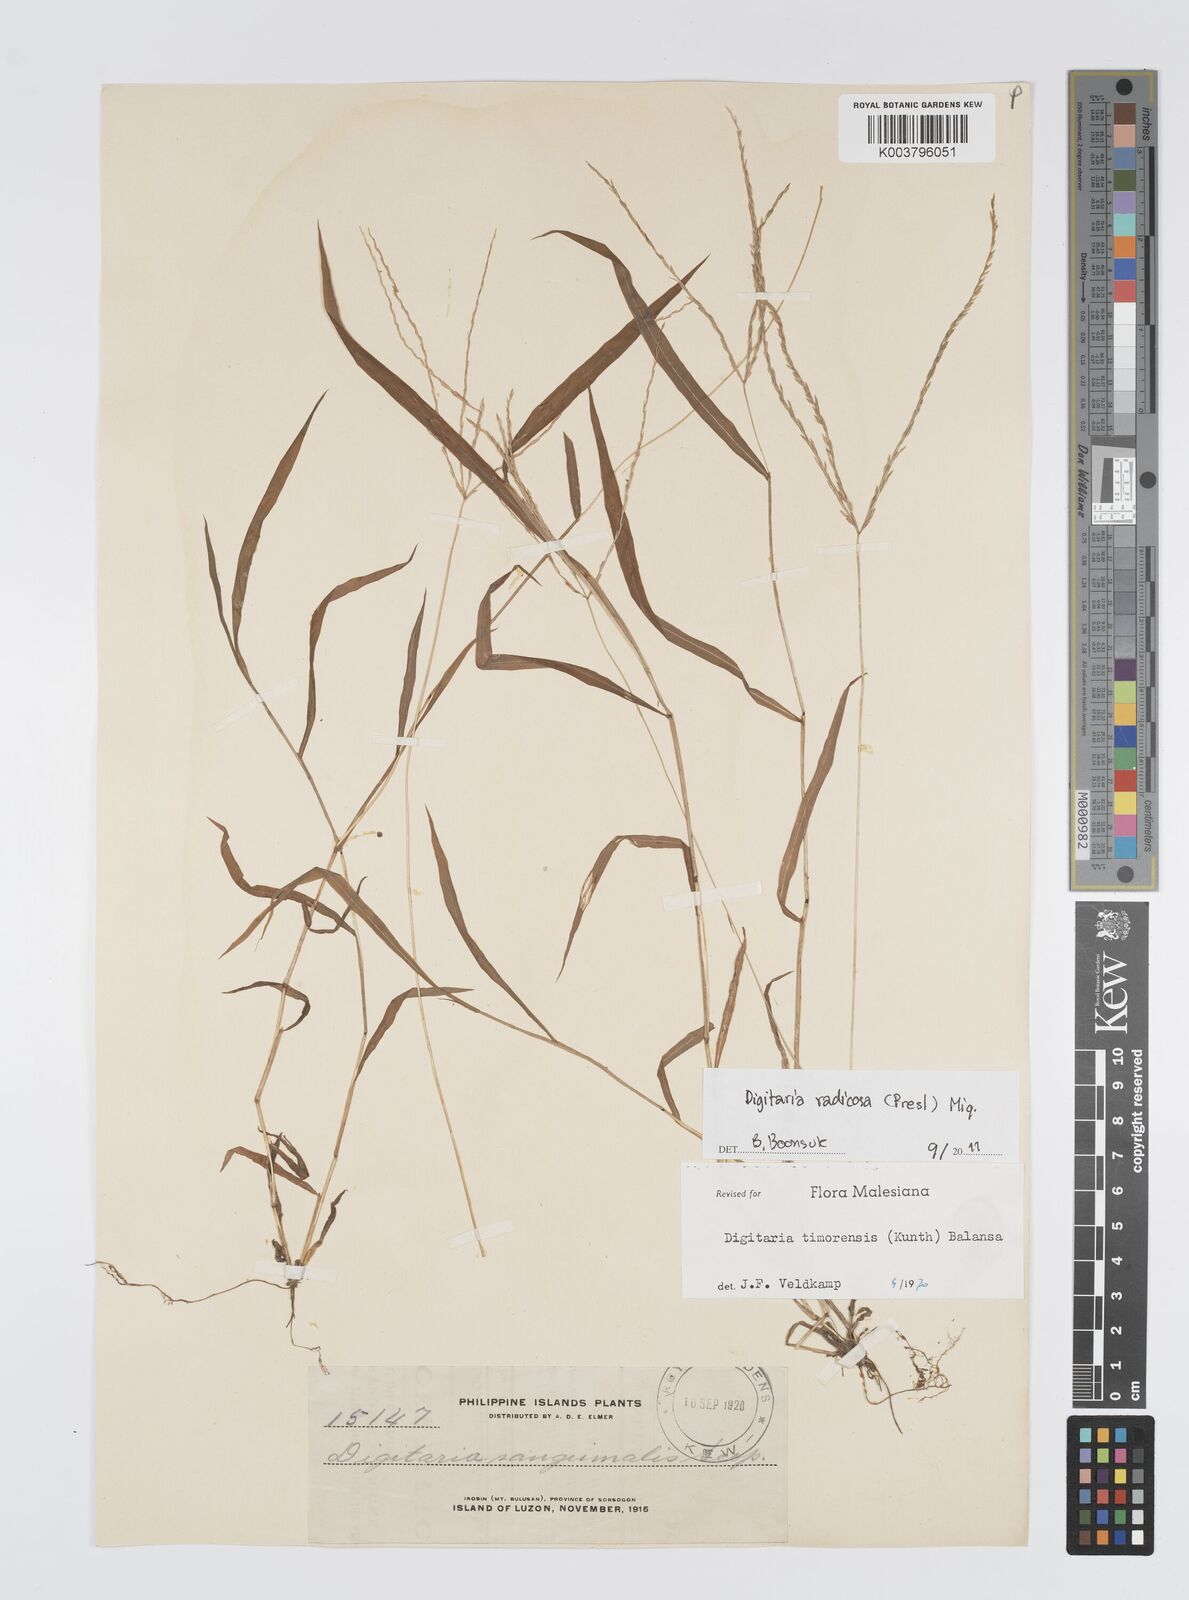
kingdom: Plantae
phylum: Tracheophyta
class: Liliopsida
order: Poales
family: Poaceae
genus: Digitaria
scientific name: Digitaria radicosa
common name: Trailing crabgrass
